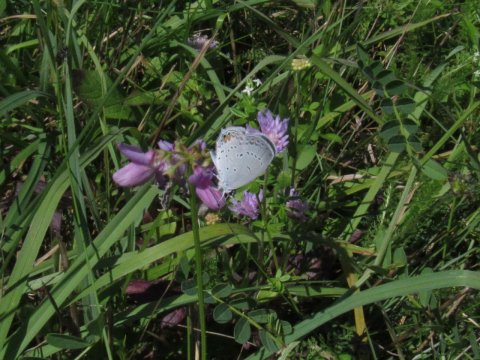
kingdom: Animalia
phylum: Arthropoda
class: Insecta
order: Lepidoptera
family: Lycaenidae
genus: Elkalyce
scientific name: Elkalyce comyntas
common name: Eastern Tailed-Blue
